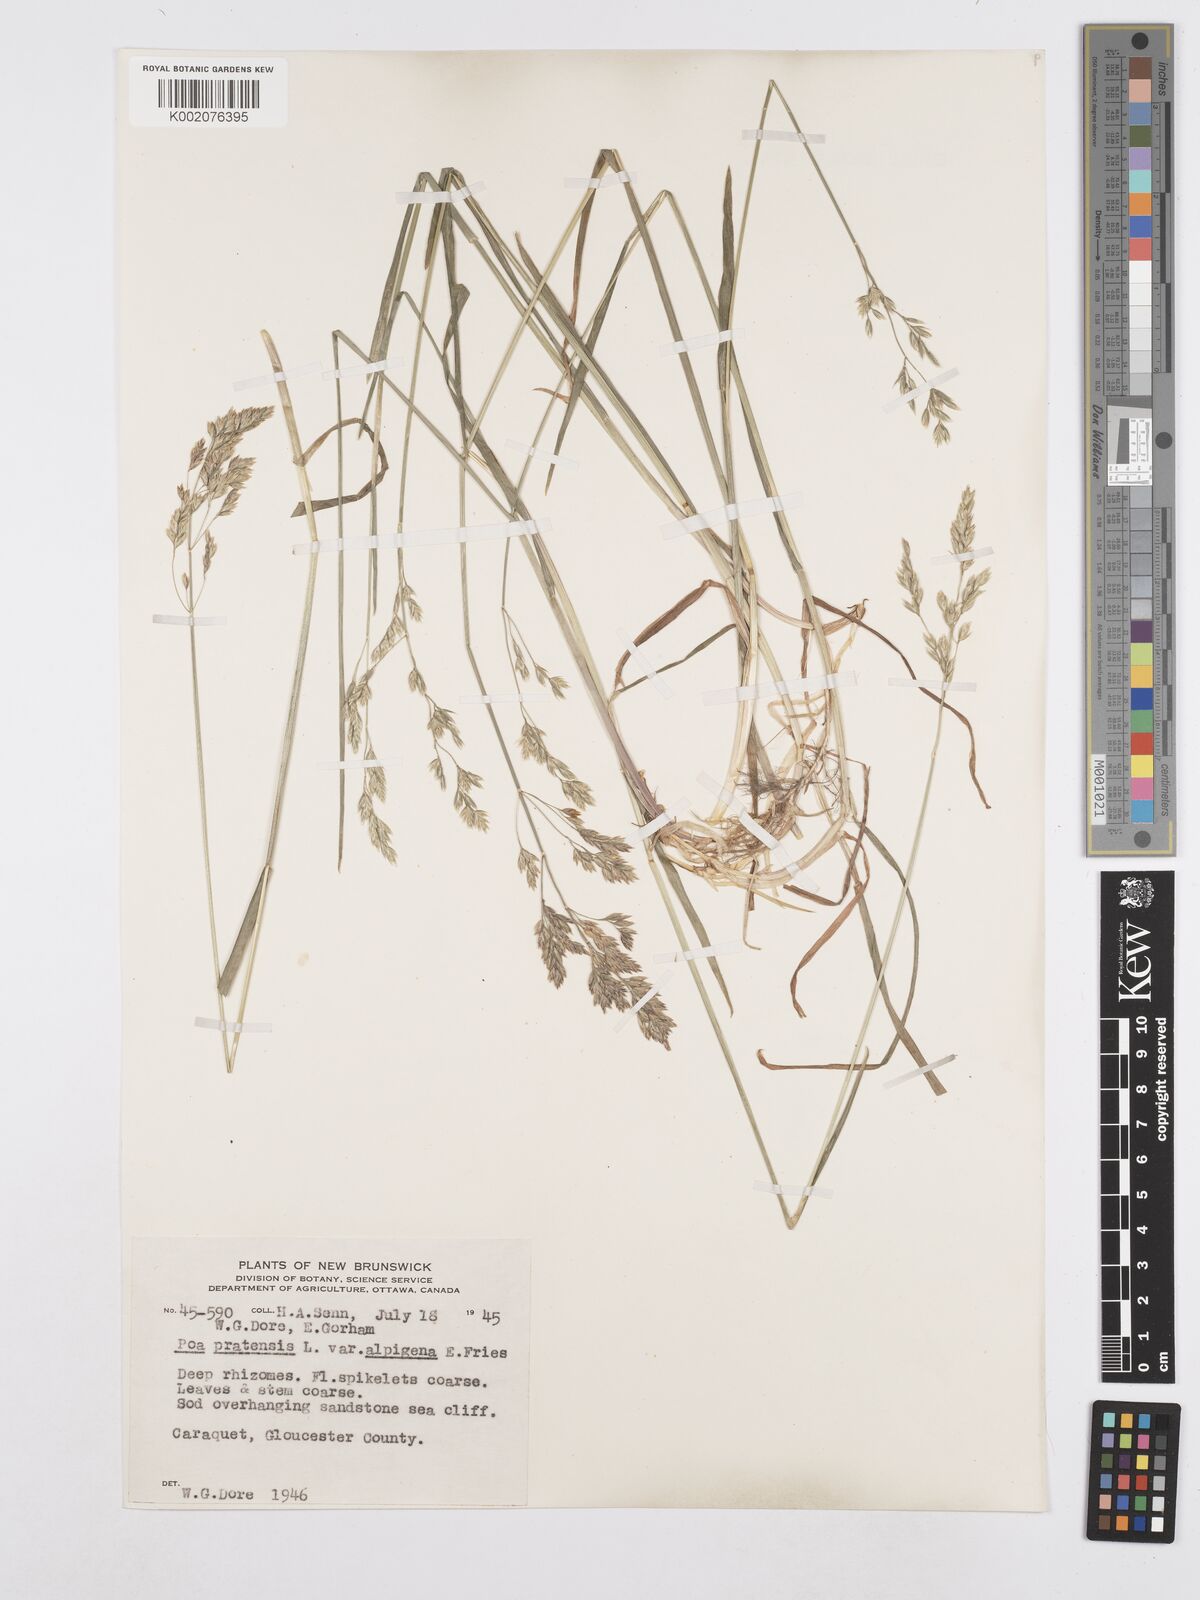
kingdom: Plantae
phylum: Tracheophyta
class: Liliopsida
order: Poales
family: Poaceae
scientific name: Poaceae
